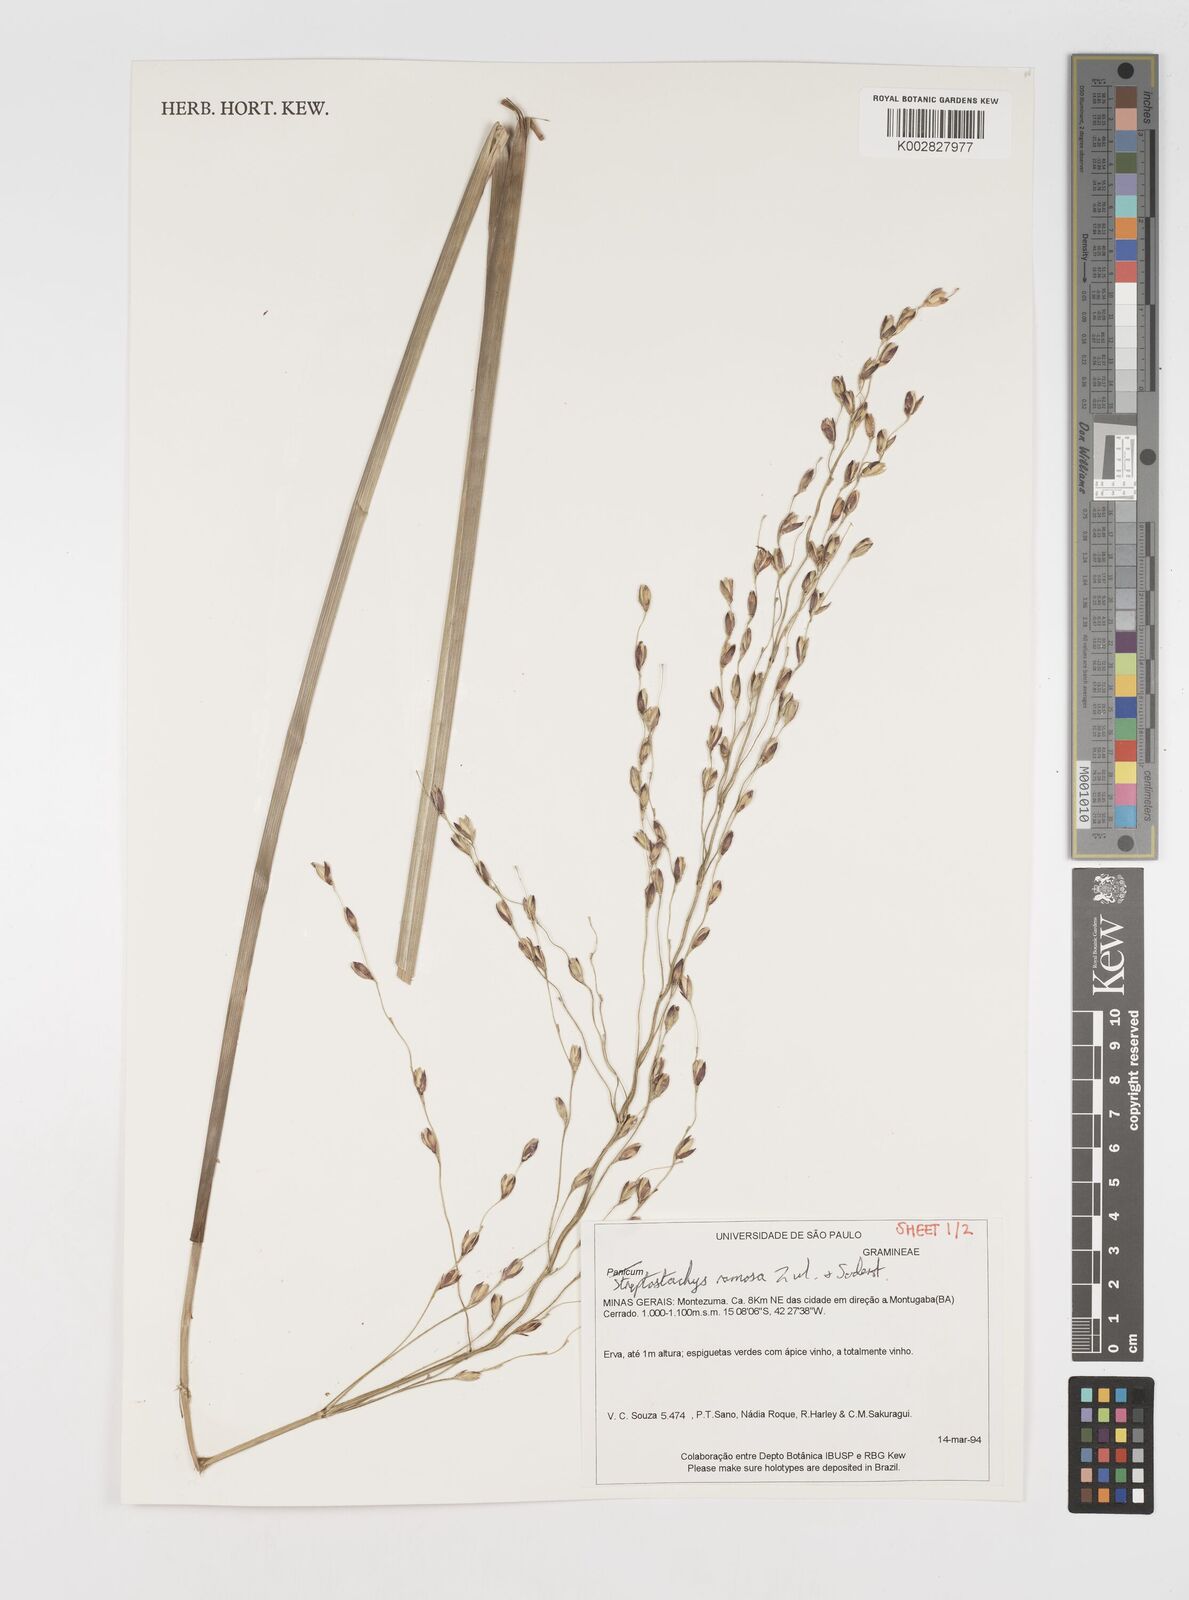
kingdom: Plantae
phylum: Tracheophyta
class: Liliopsida
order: Poales
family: Poaceae
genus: Oncorachis
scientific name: Oncorachis ramosa
